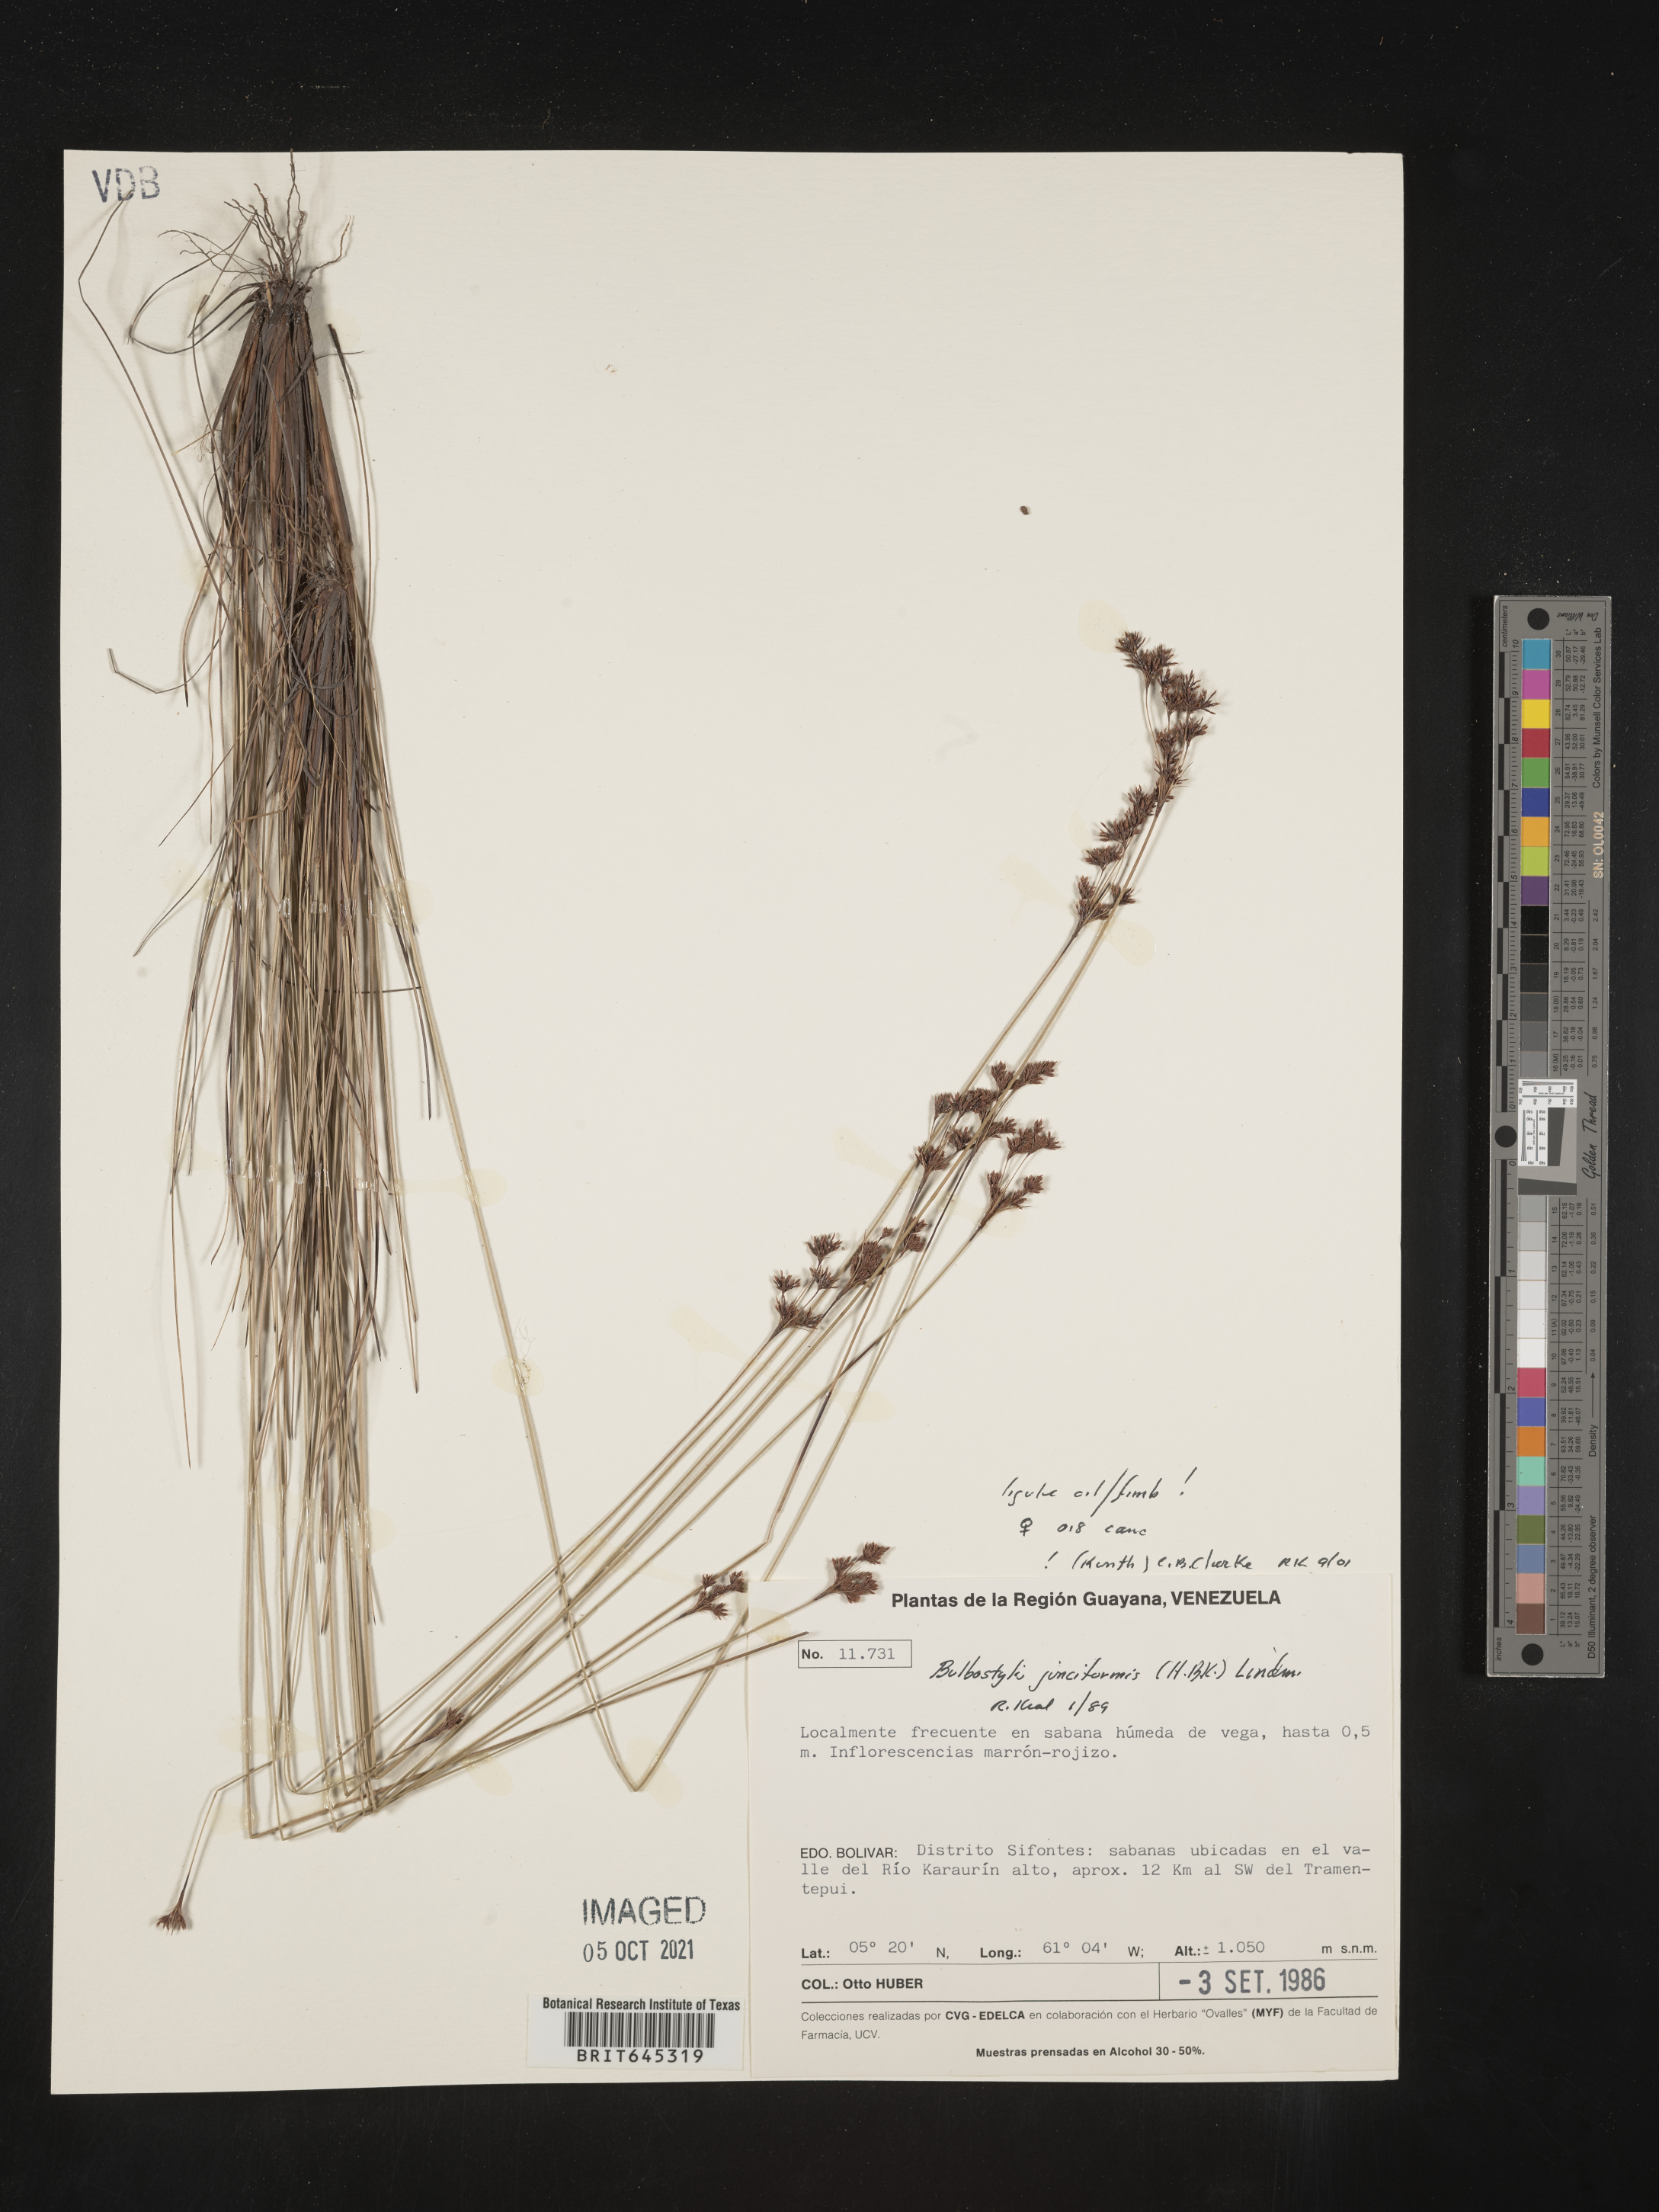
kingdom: Plantae
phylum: Tracheophyta
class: Liliopsida
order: Poales
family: Cyperaceae
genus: Bulbostylis
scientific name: Bulbostylis junciformis
